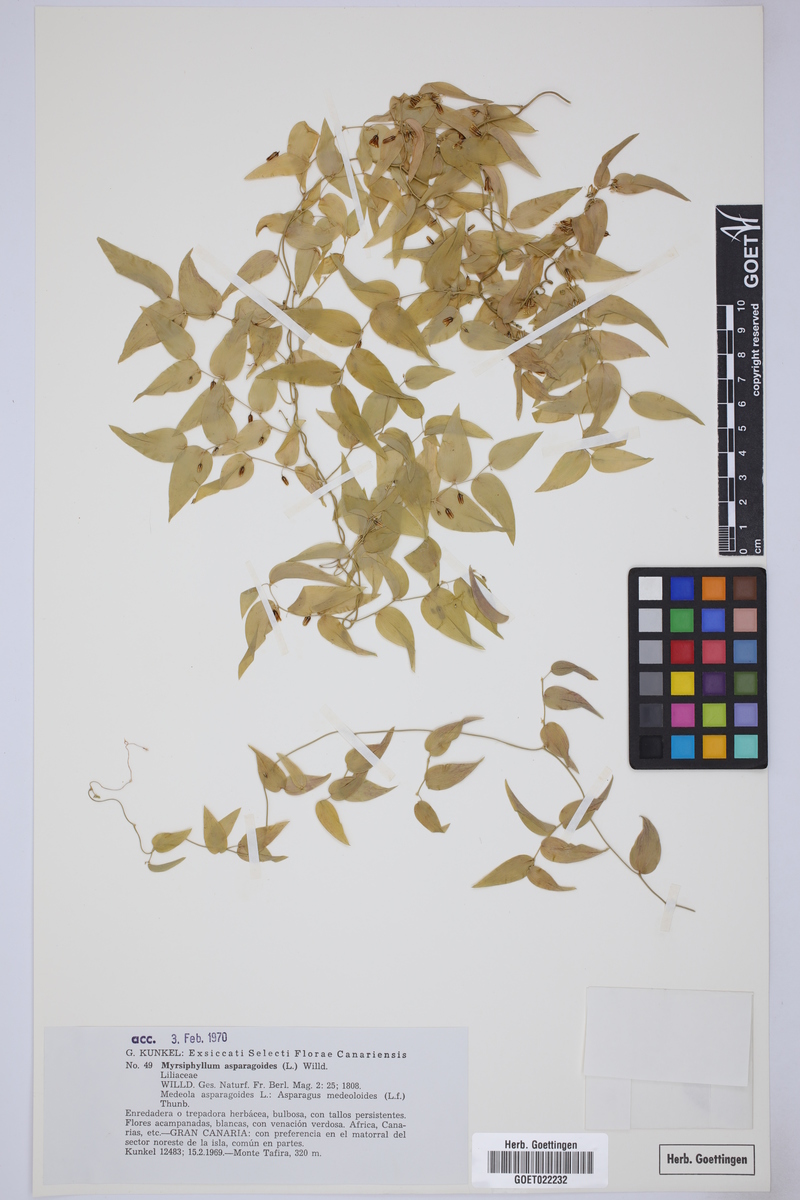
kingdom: Plantae
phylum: Tracheophyta
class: Liliopsida
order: Asparagales
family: Asparagaceae
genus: Asparagus
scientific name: Asparagus asparagoides
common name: African asparagus fern
